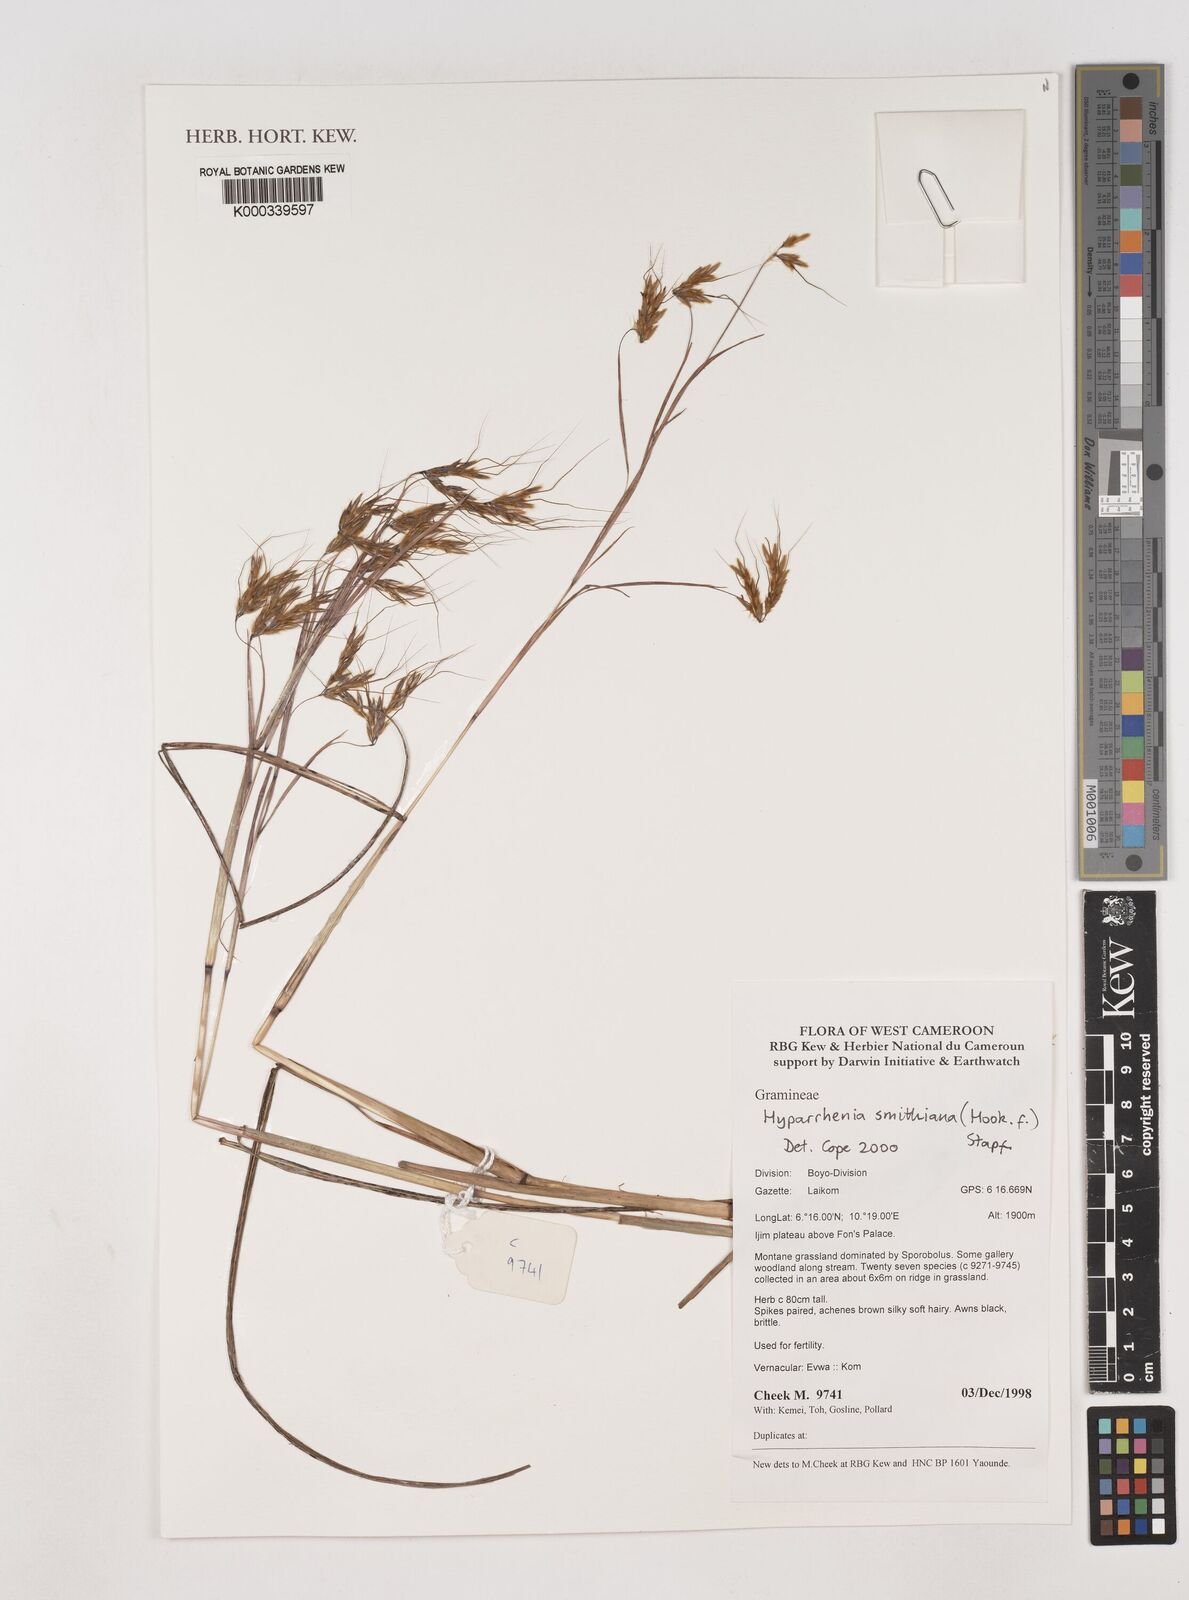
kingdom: Plantae
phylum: Tracheophyta
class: Liliopsida
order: Poales
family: Poaceae
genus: Hyparrhenia
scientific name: Hyparrhenia smithiana
